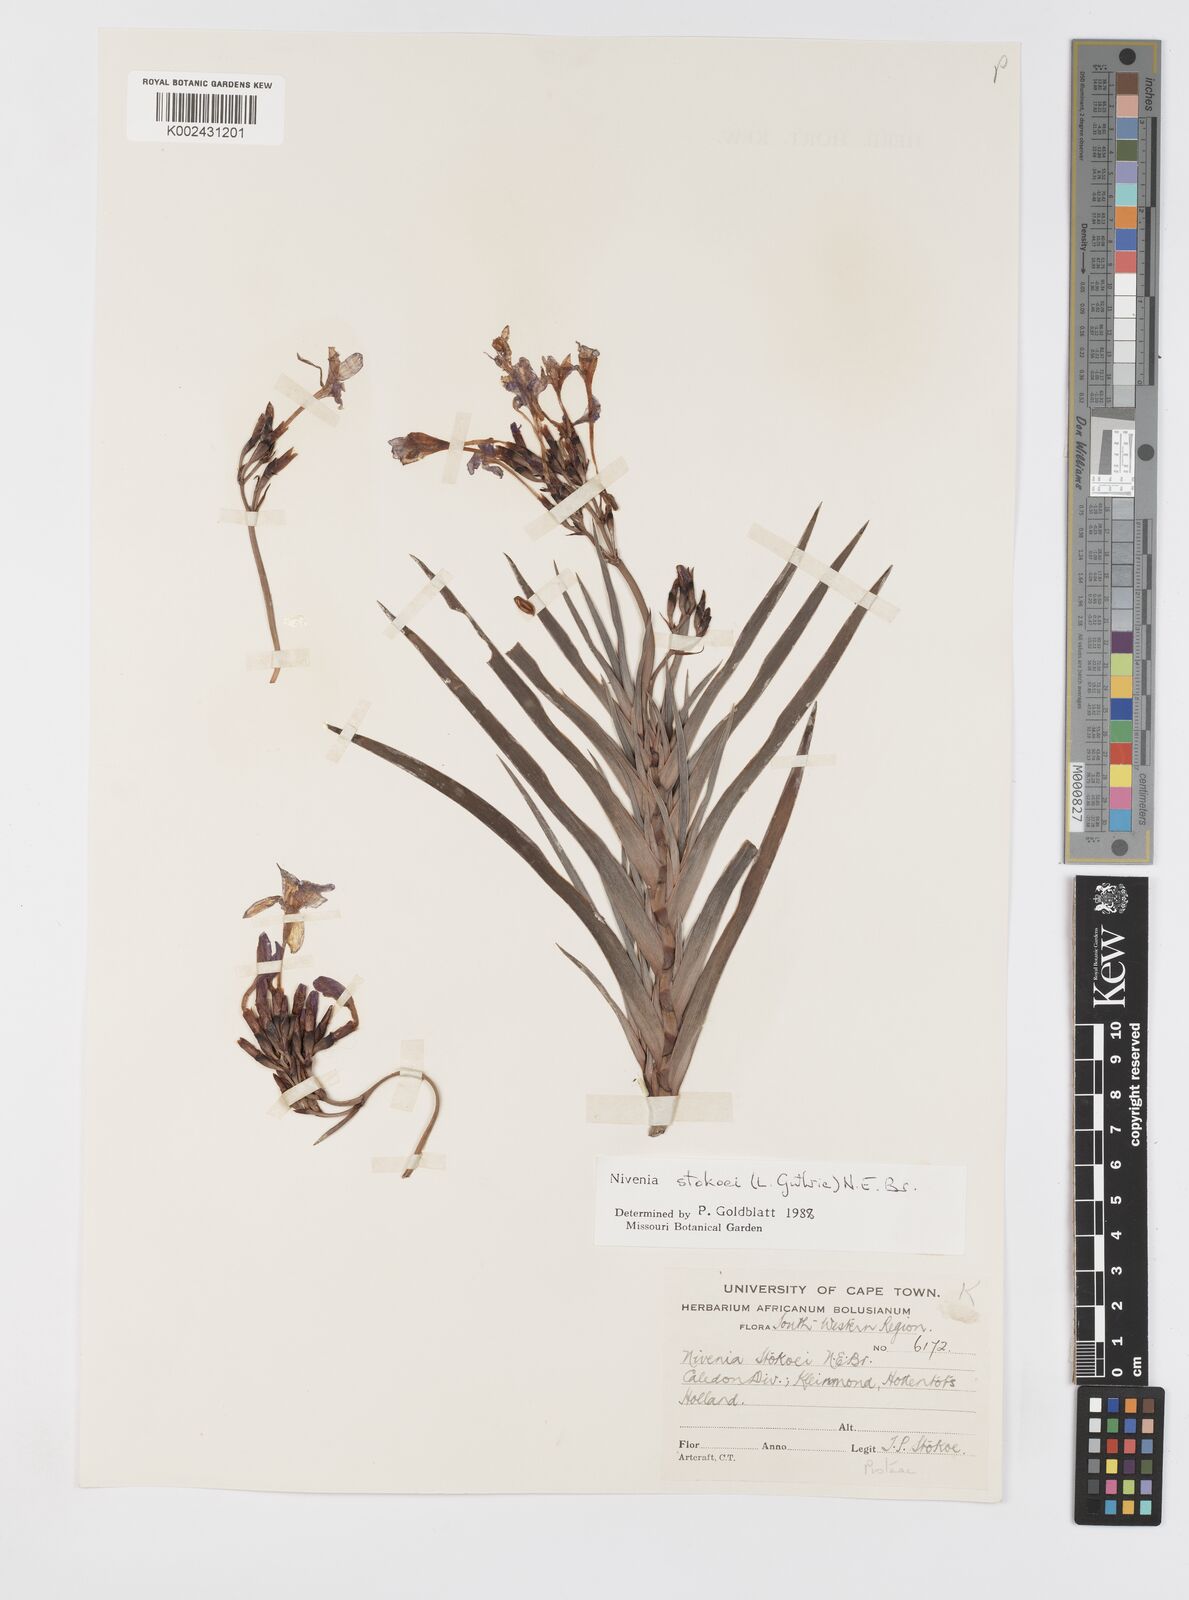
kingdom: Plantae
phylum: Tracheophyta
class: Liliopsida
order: Asparagales
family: Iridaceae
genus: Nivenia
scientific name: Nivenia stokoei
